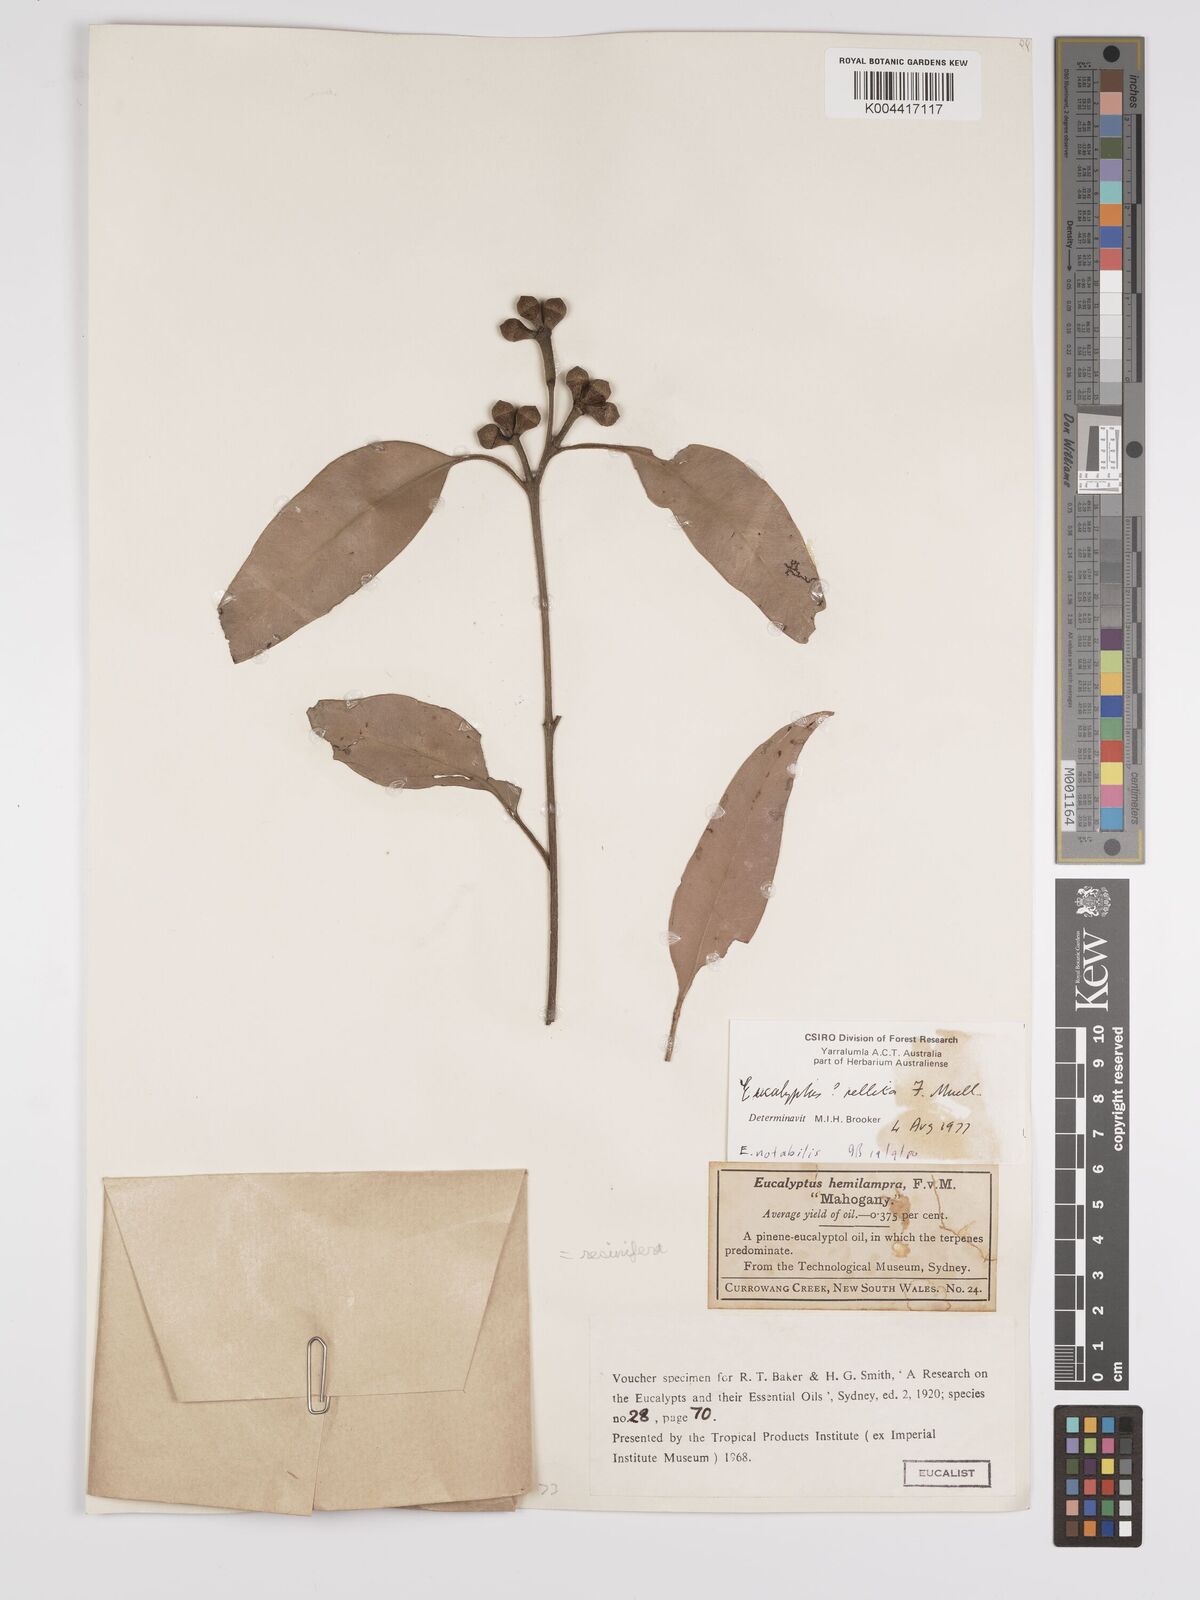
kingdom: Plantae
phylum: Tracheophyta
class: Magnoliopsida
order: Myrtales
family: Myrtaceae
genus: Eucalyptus
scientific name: Eucalyptus notabilis
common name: Blue mountains-mahogany
